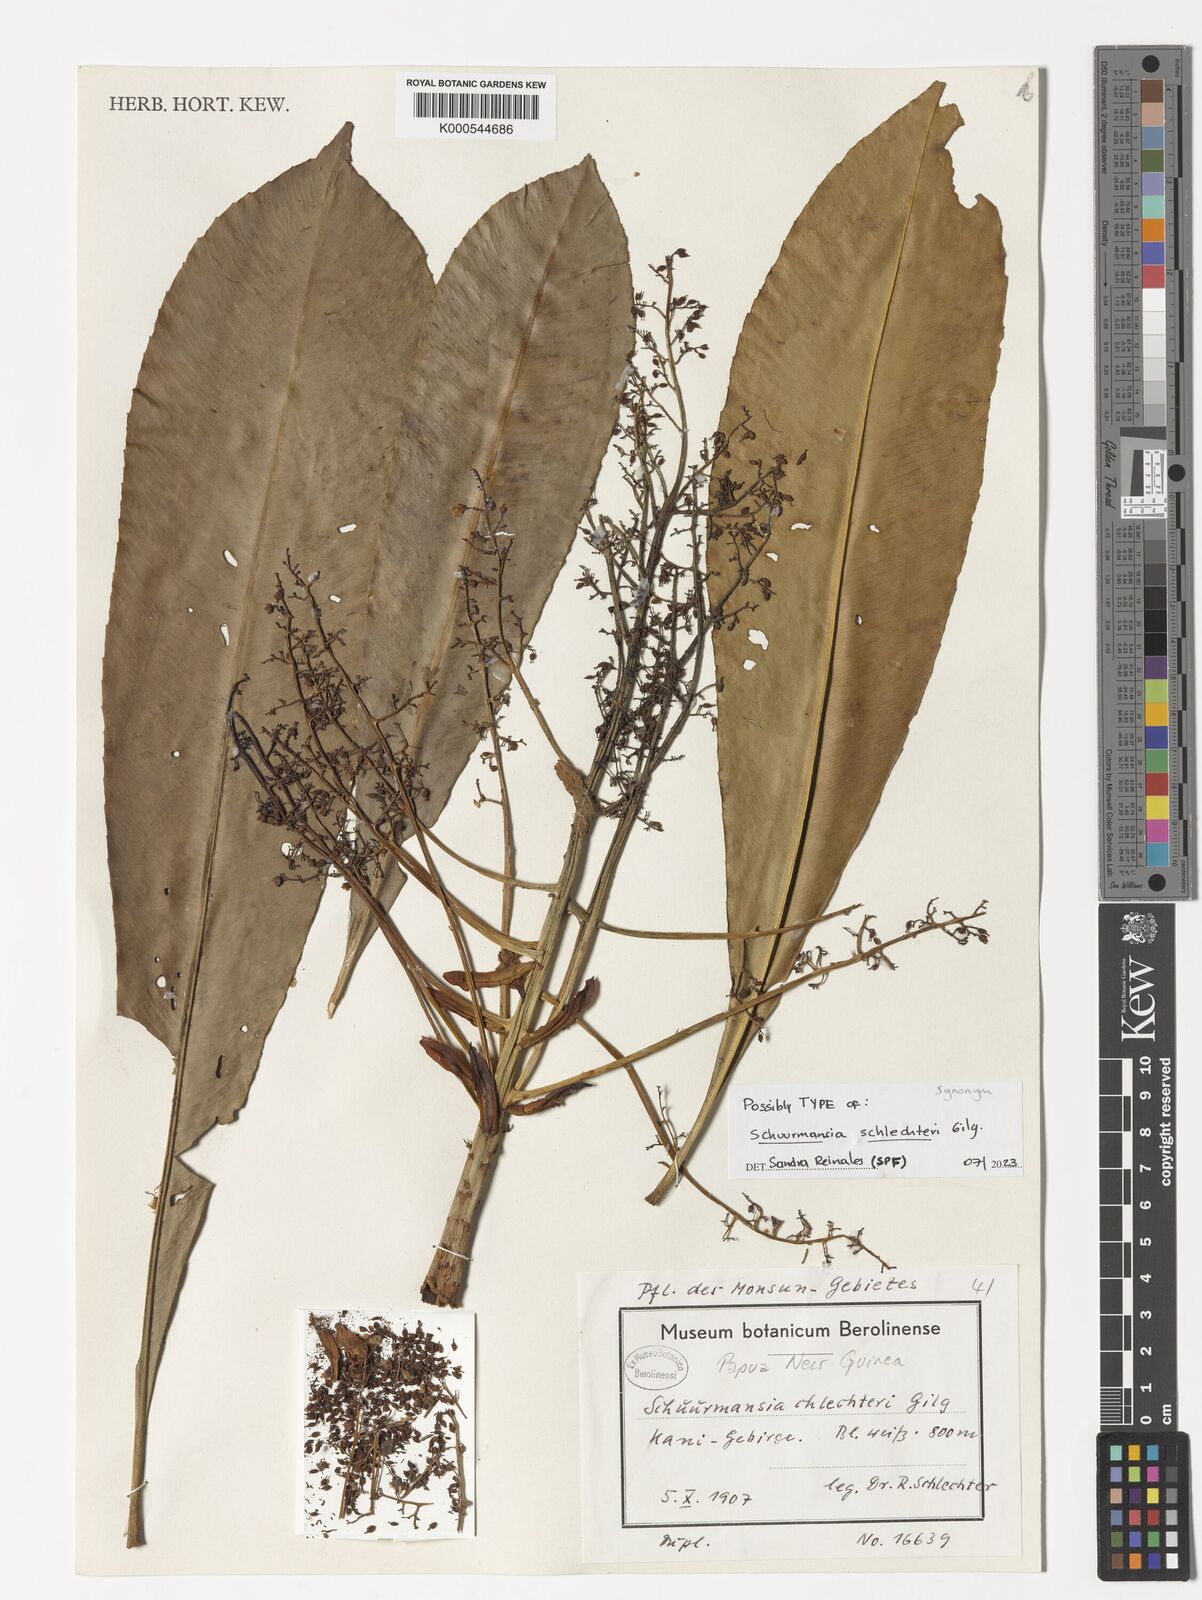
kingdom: Plantae
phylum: Tracheophyta
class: Magnoliopsida
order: Malpighiales
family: Ochnaceae
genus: Schuurmansia
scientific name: Schuurmansia henningsii
